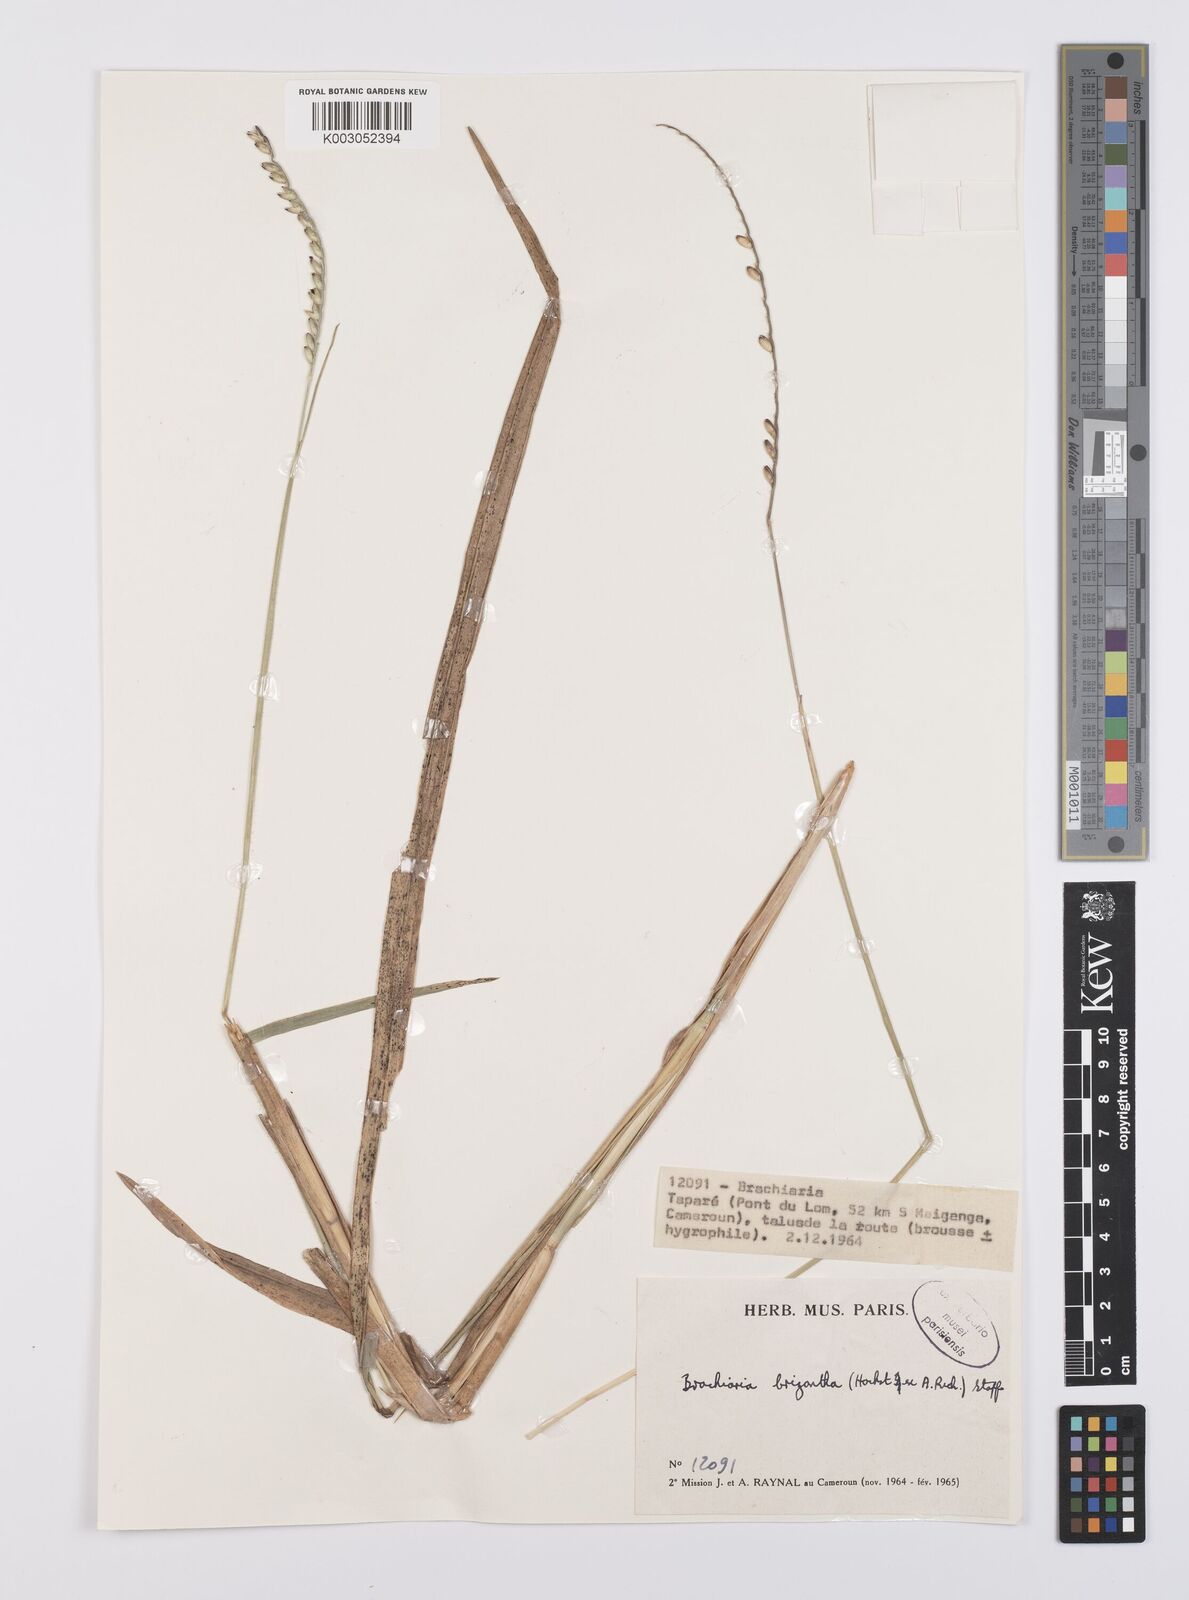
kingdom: Plantae
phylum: Tracheophyta
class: Liliopsida
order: Poales
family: Poaceae
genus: Urochloa
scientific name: Urochloa brizantha
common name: Palisade signalgrass
